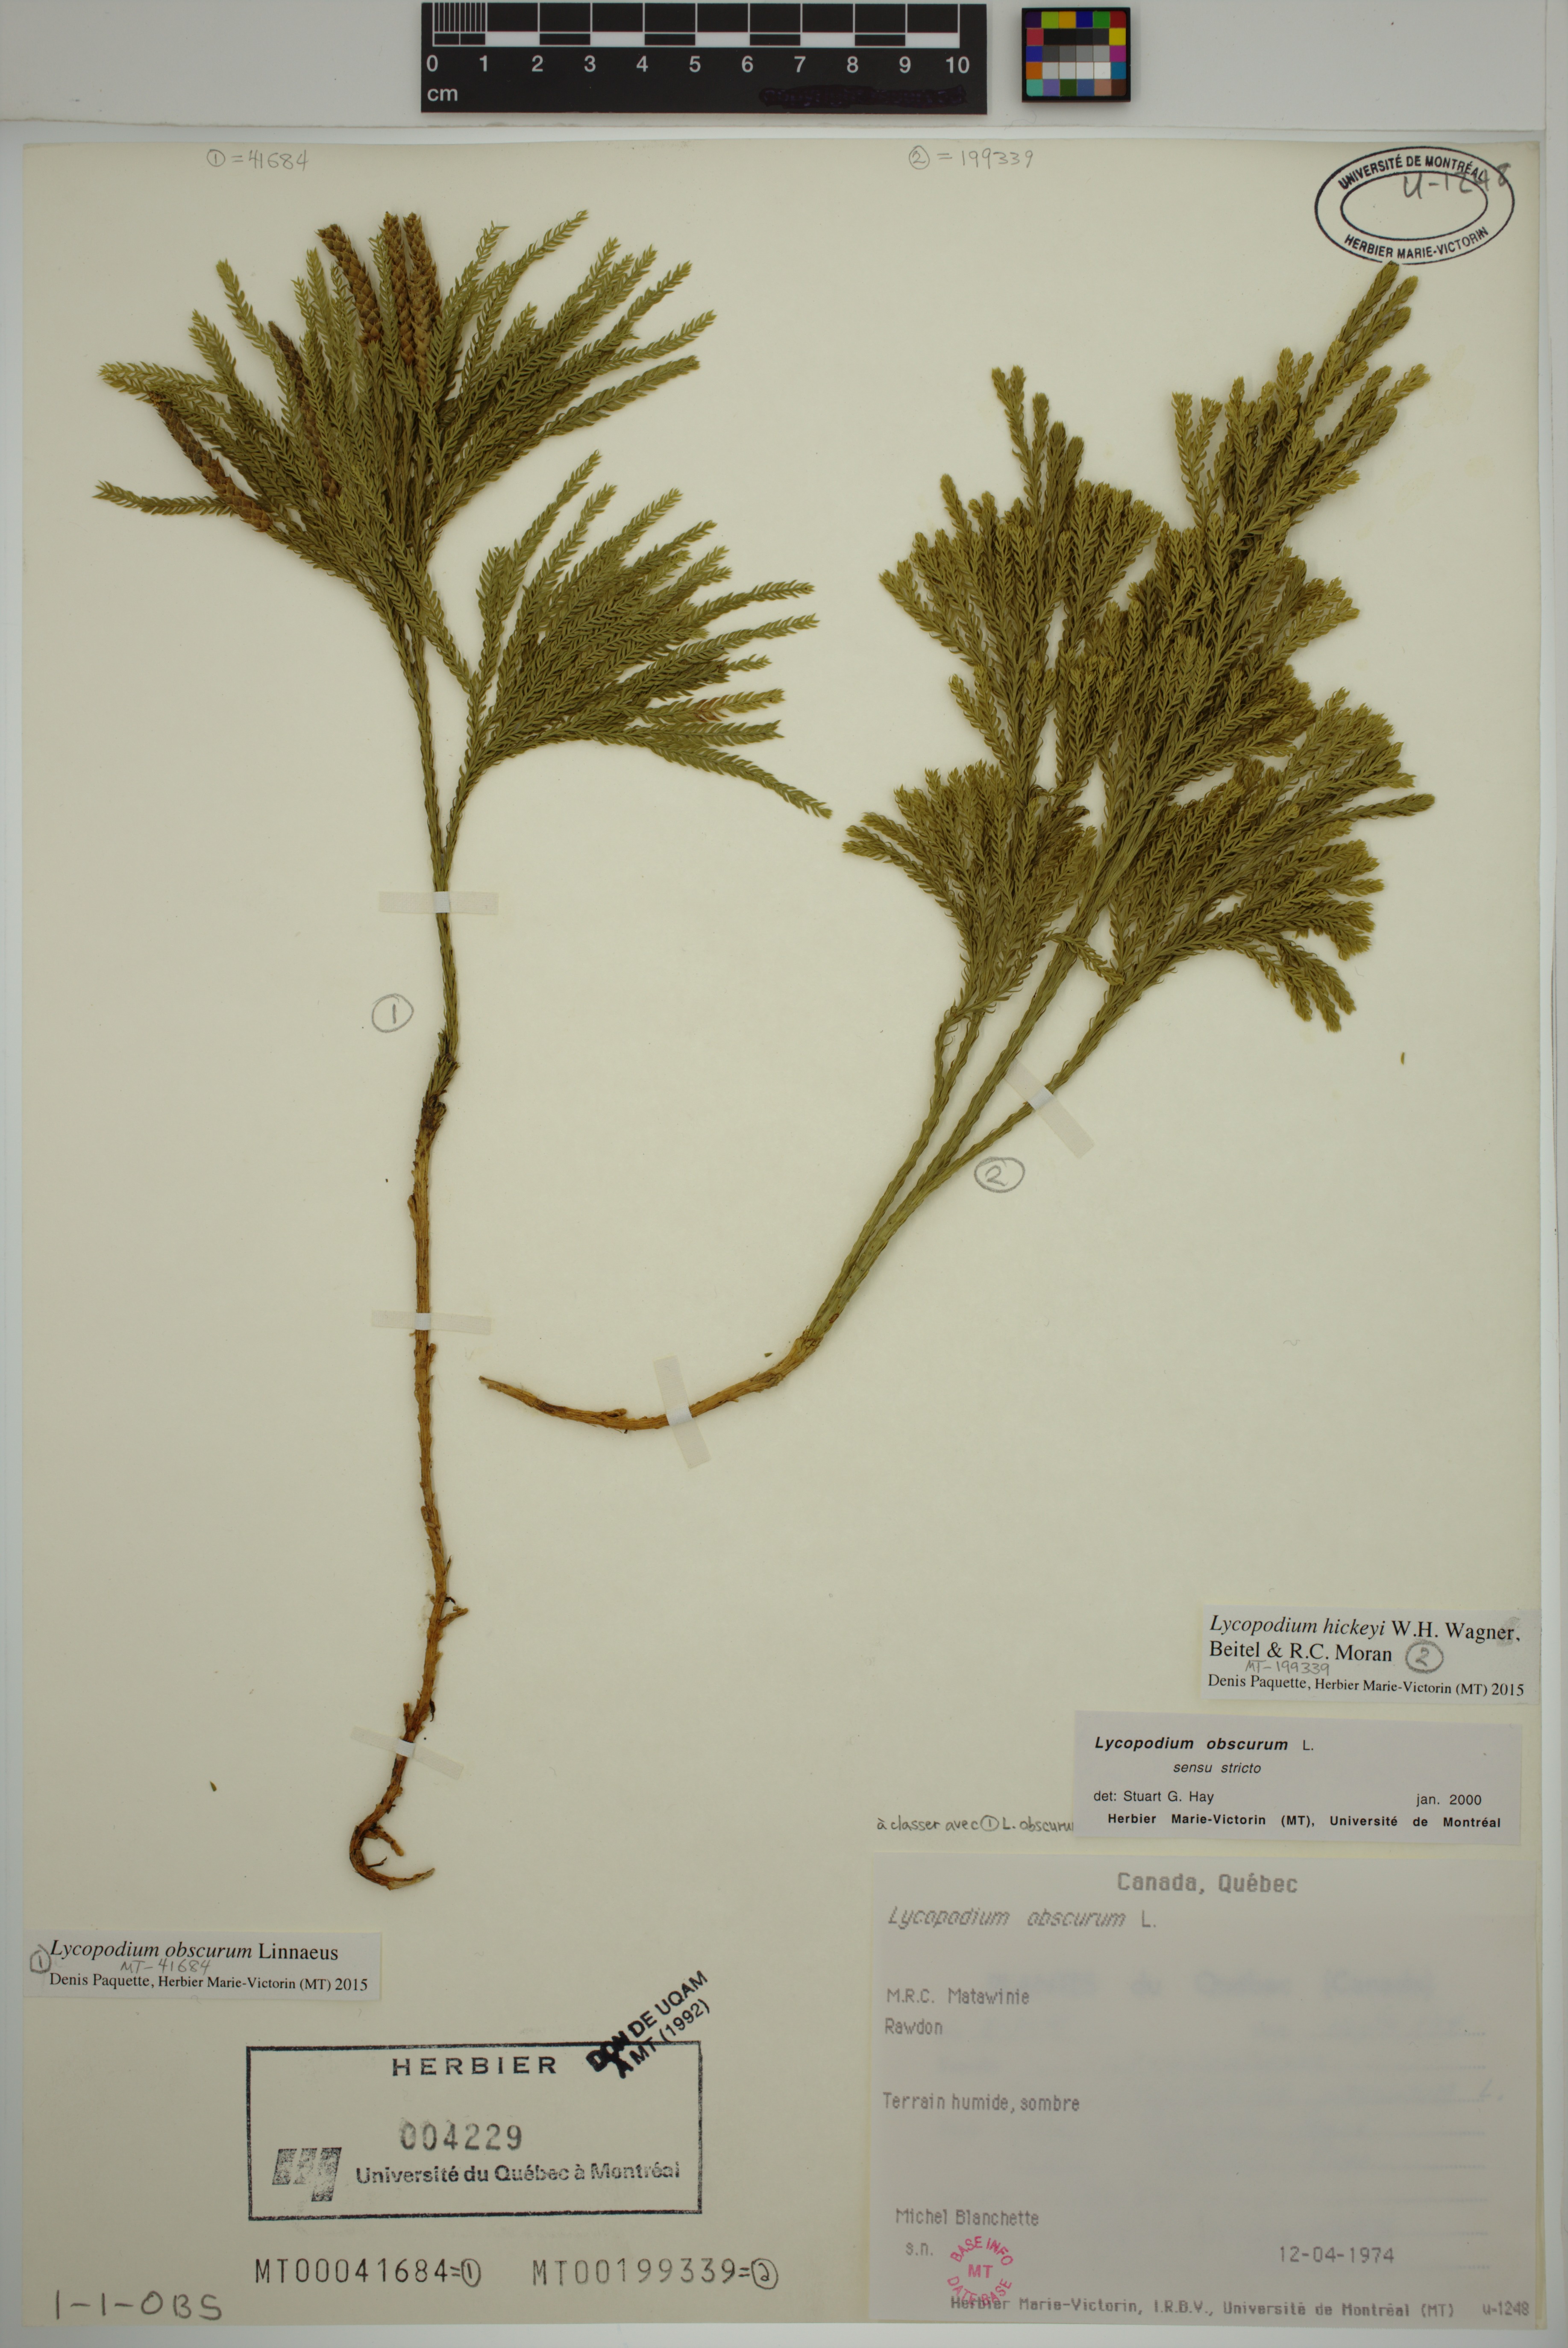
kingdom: Plantae
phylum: Tracheophyta
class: Lycopodiopsida
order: Lycopodiales
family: Lycopodiaceae
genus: Dendrolycopodium
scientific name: Dendrolycopodium hickeyi
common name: Hickey's clubmoss
